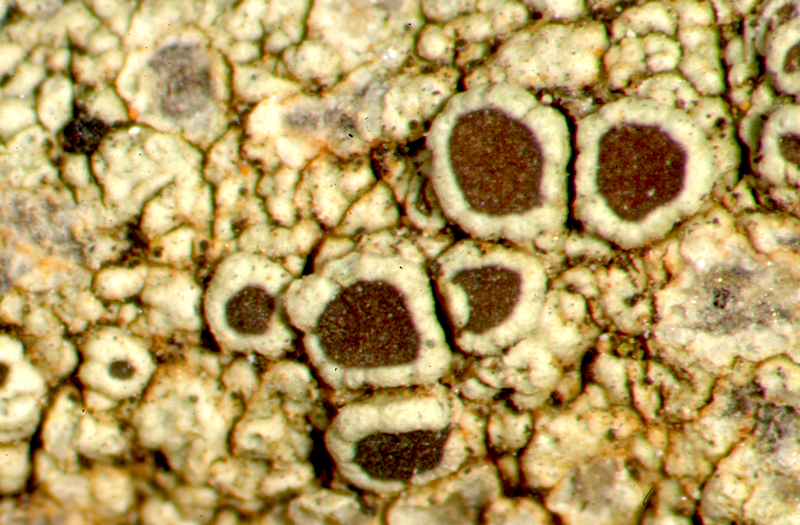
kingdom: Fungi
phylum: Ascomycota
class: Lecanoromycetes
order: Caliciales
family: Physciaceae
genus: Rinodina
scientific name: Rinodina
